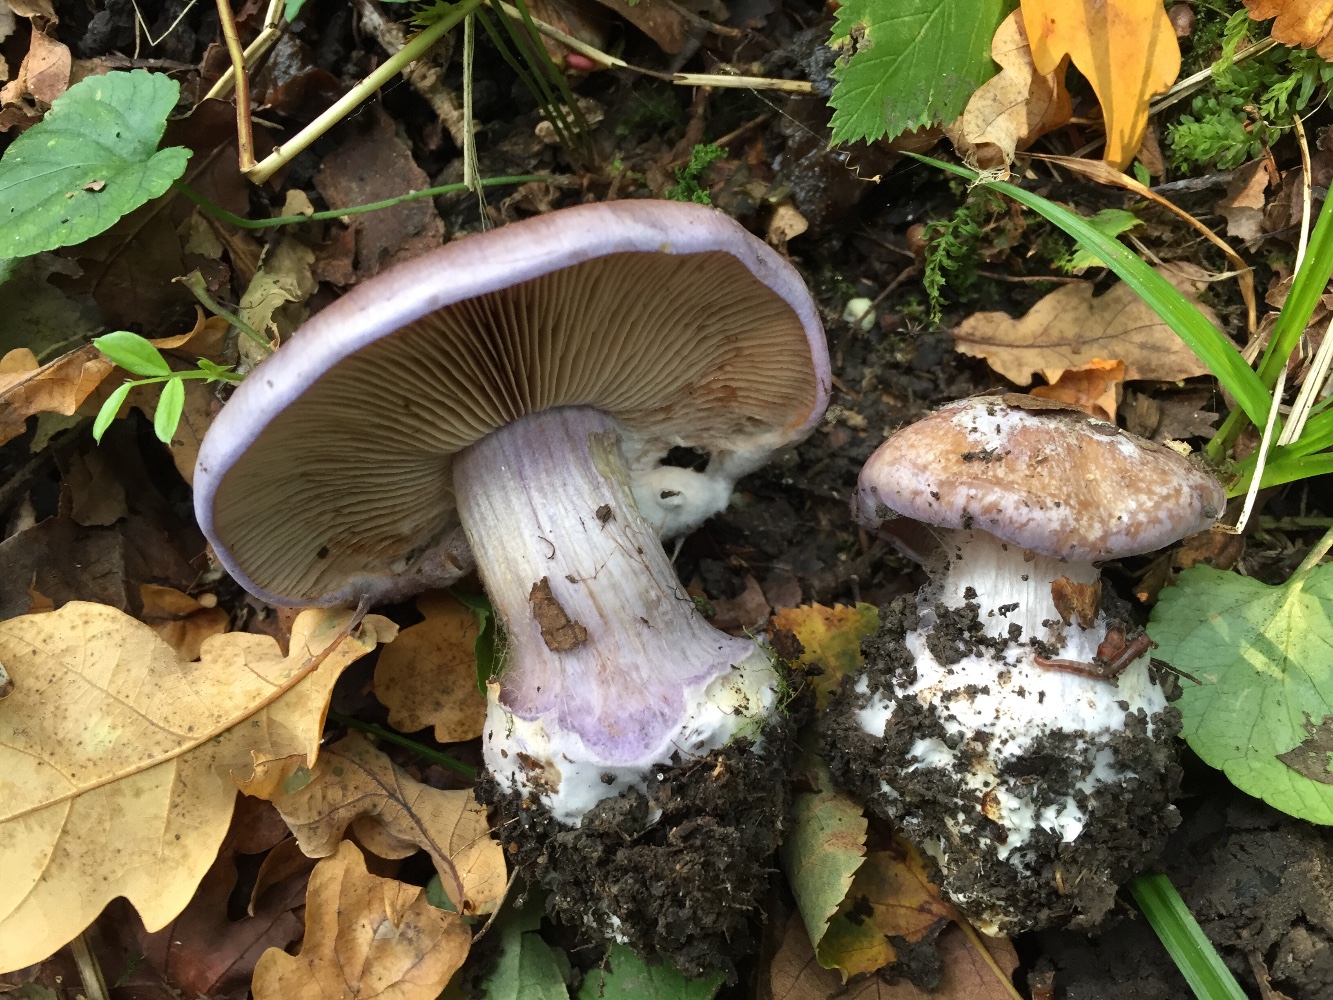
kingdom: Fungi
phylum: Basidiomycota
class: Agaricomycetes
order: Agaricales
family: Cortinariaceae
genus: Phlegmacium
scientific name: Phlegmacium moenne-loccozii
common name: pose-slørhat
